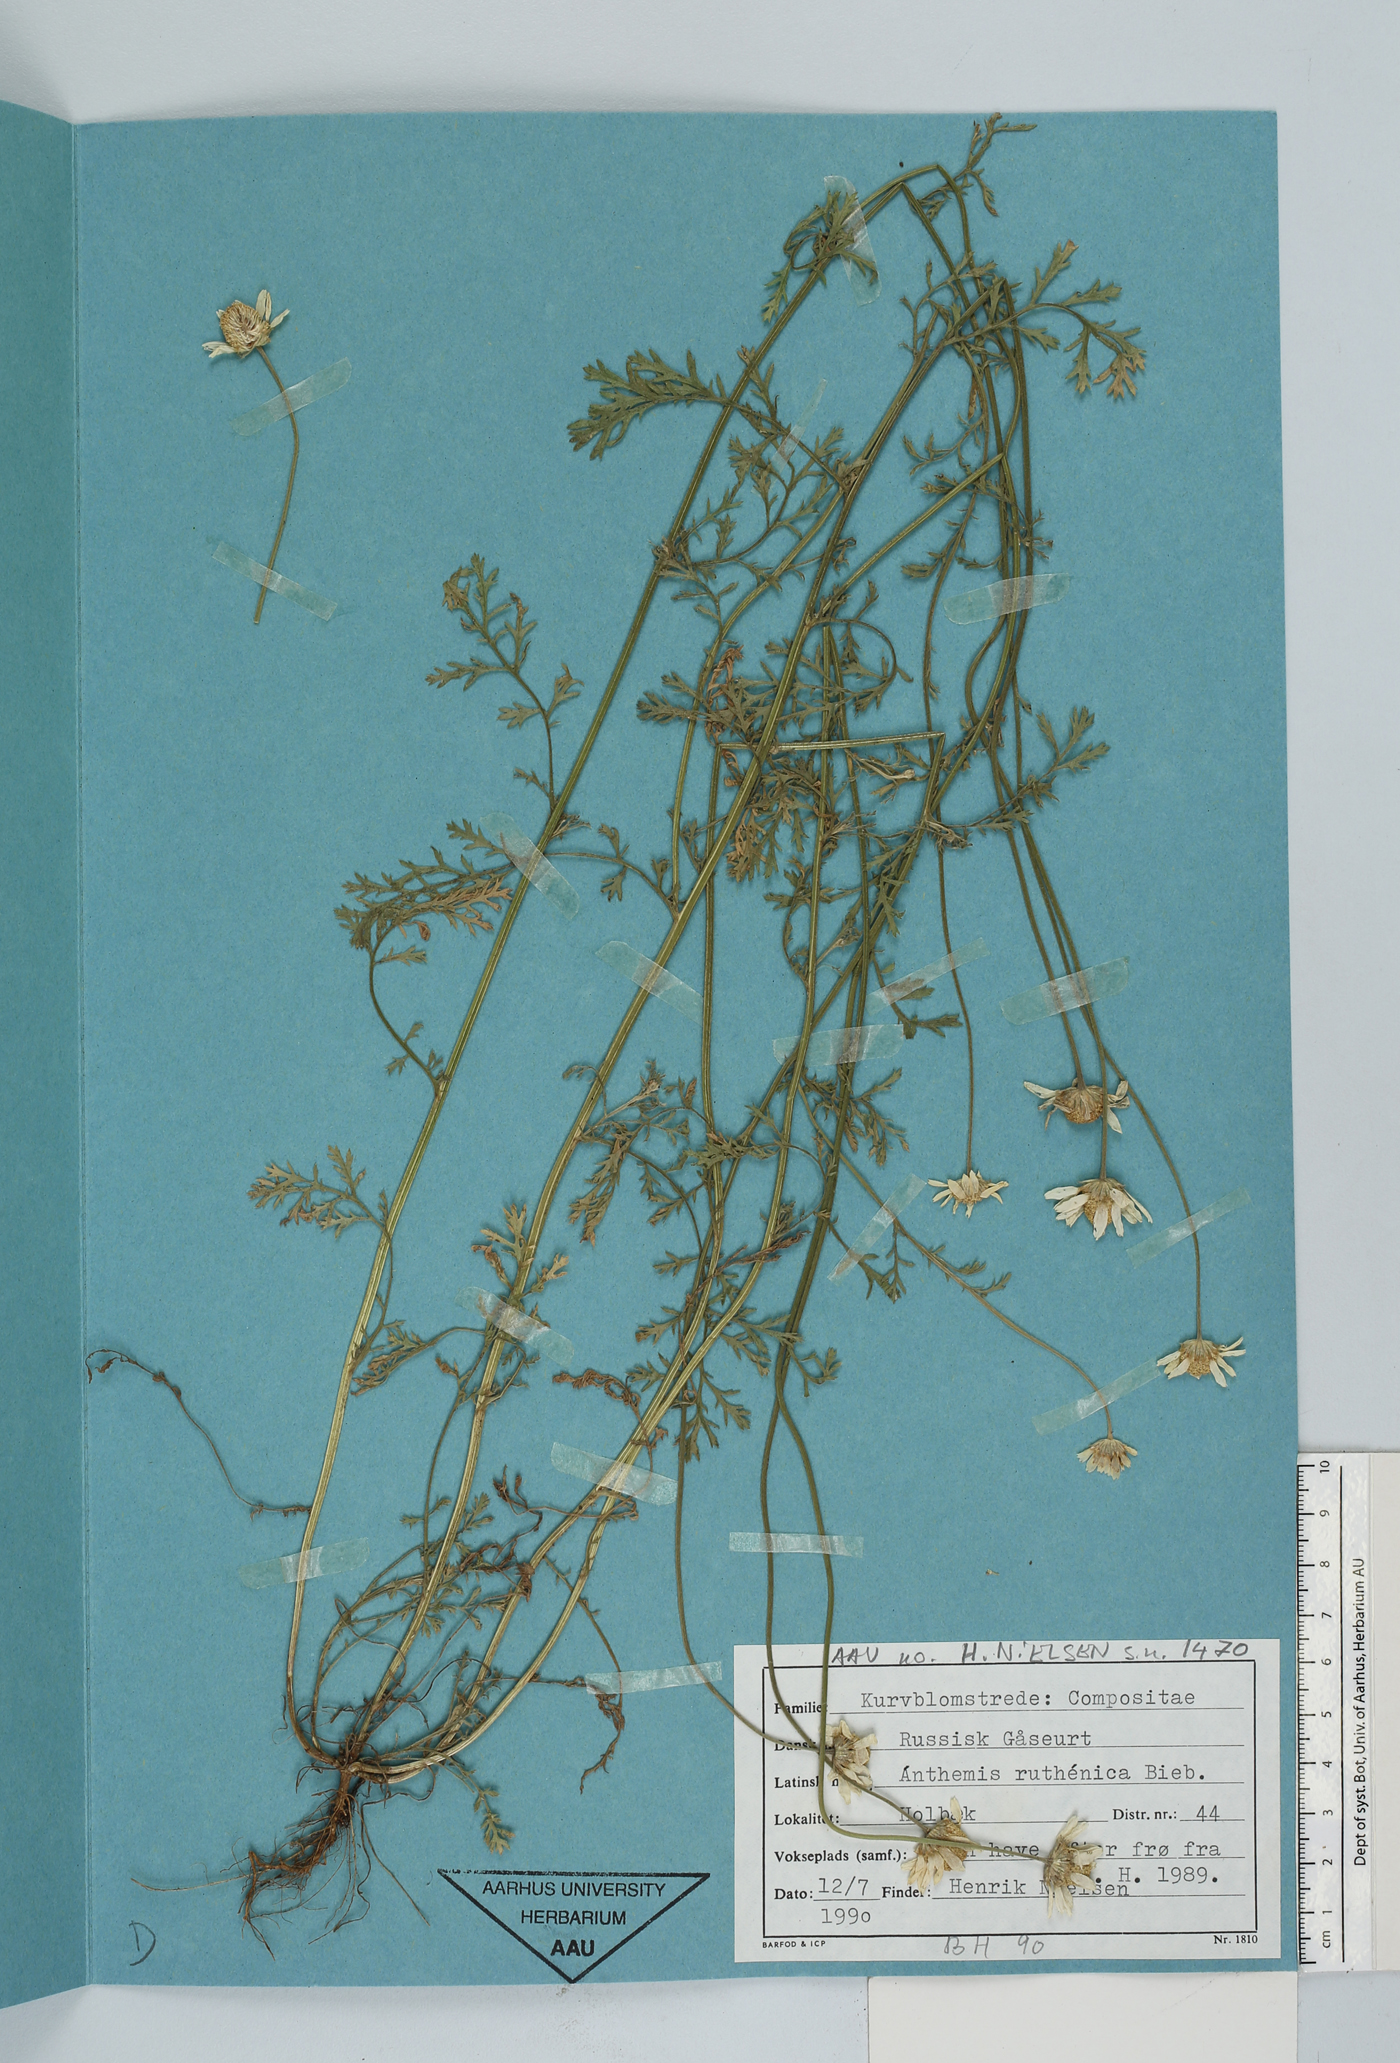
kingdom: Plantae
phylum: Tracheophyta
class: Magnoliopsida
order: Asterales
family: Asteraceae
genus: Anthemis
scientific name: Anthemis ruthenica
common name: Eastern chamomile
